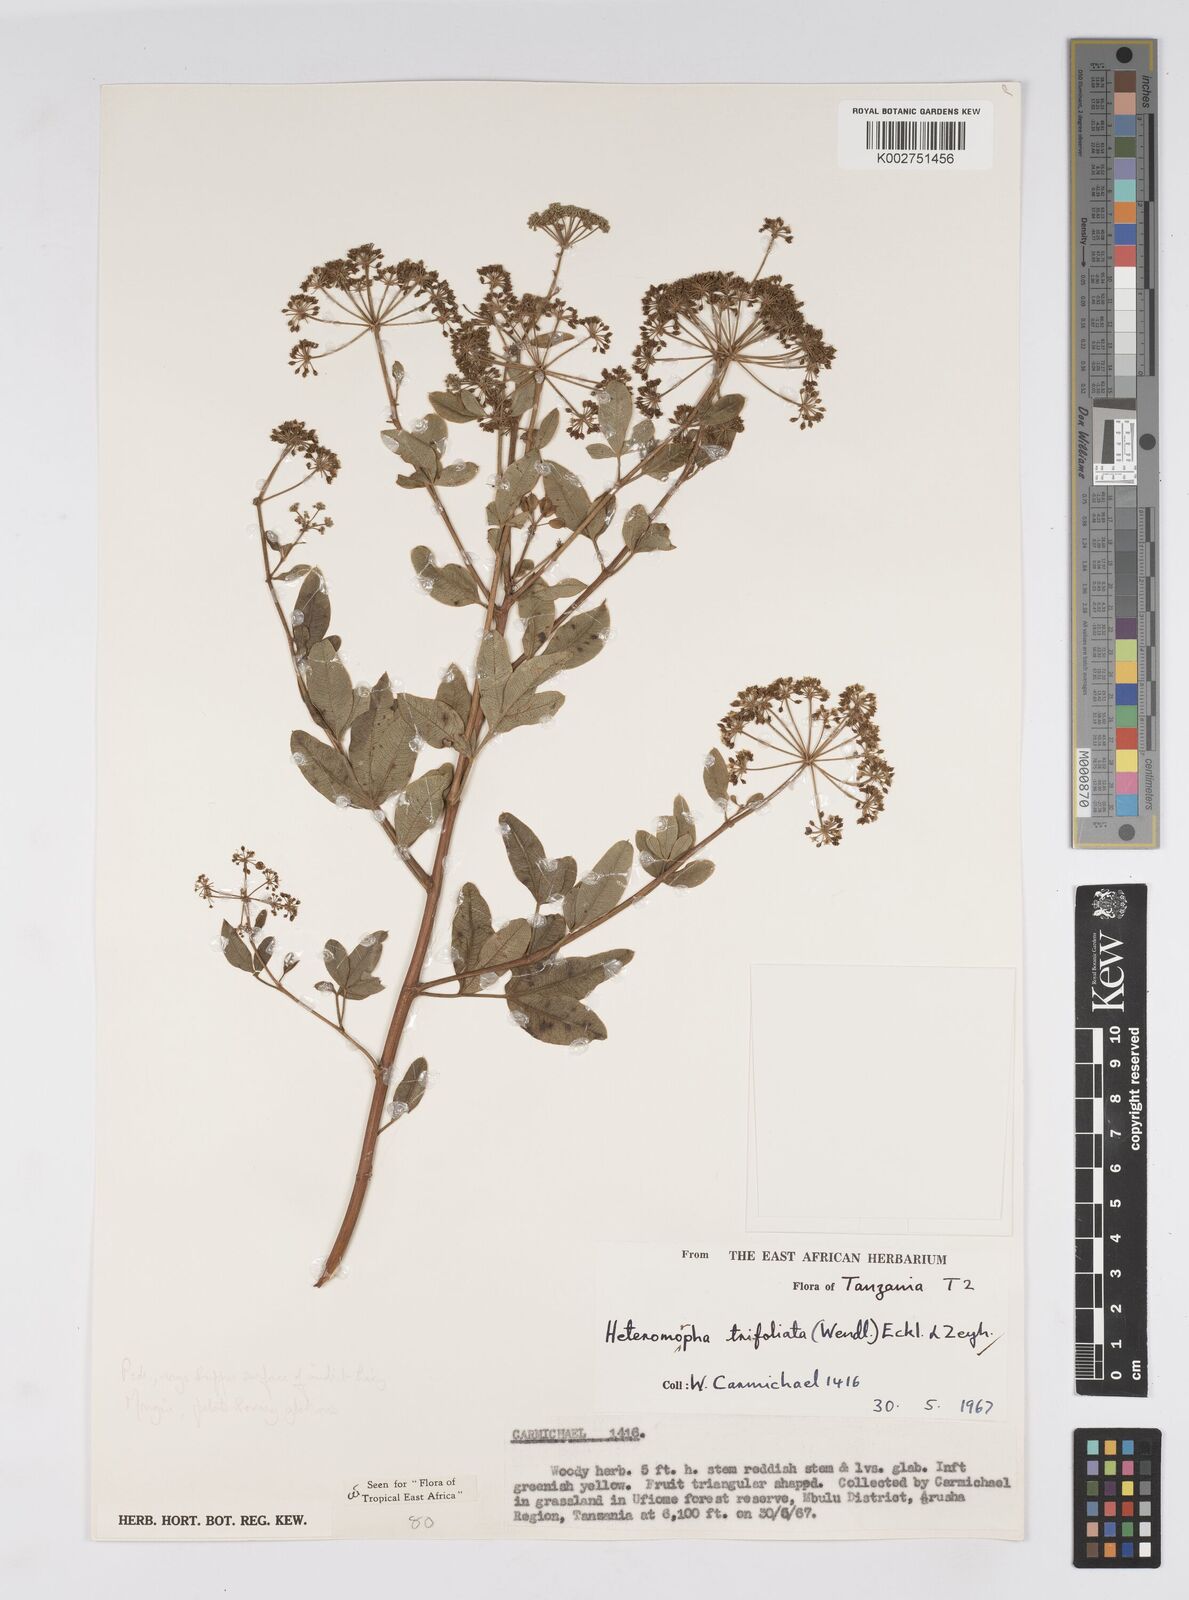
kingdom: Plantae
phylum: Tracheophyta
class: Magnoliopsida
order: Apiales
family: Apiaceae
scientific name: Apiaceae
